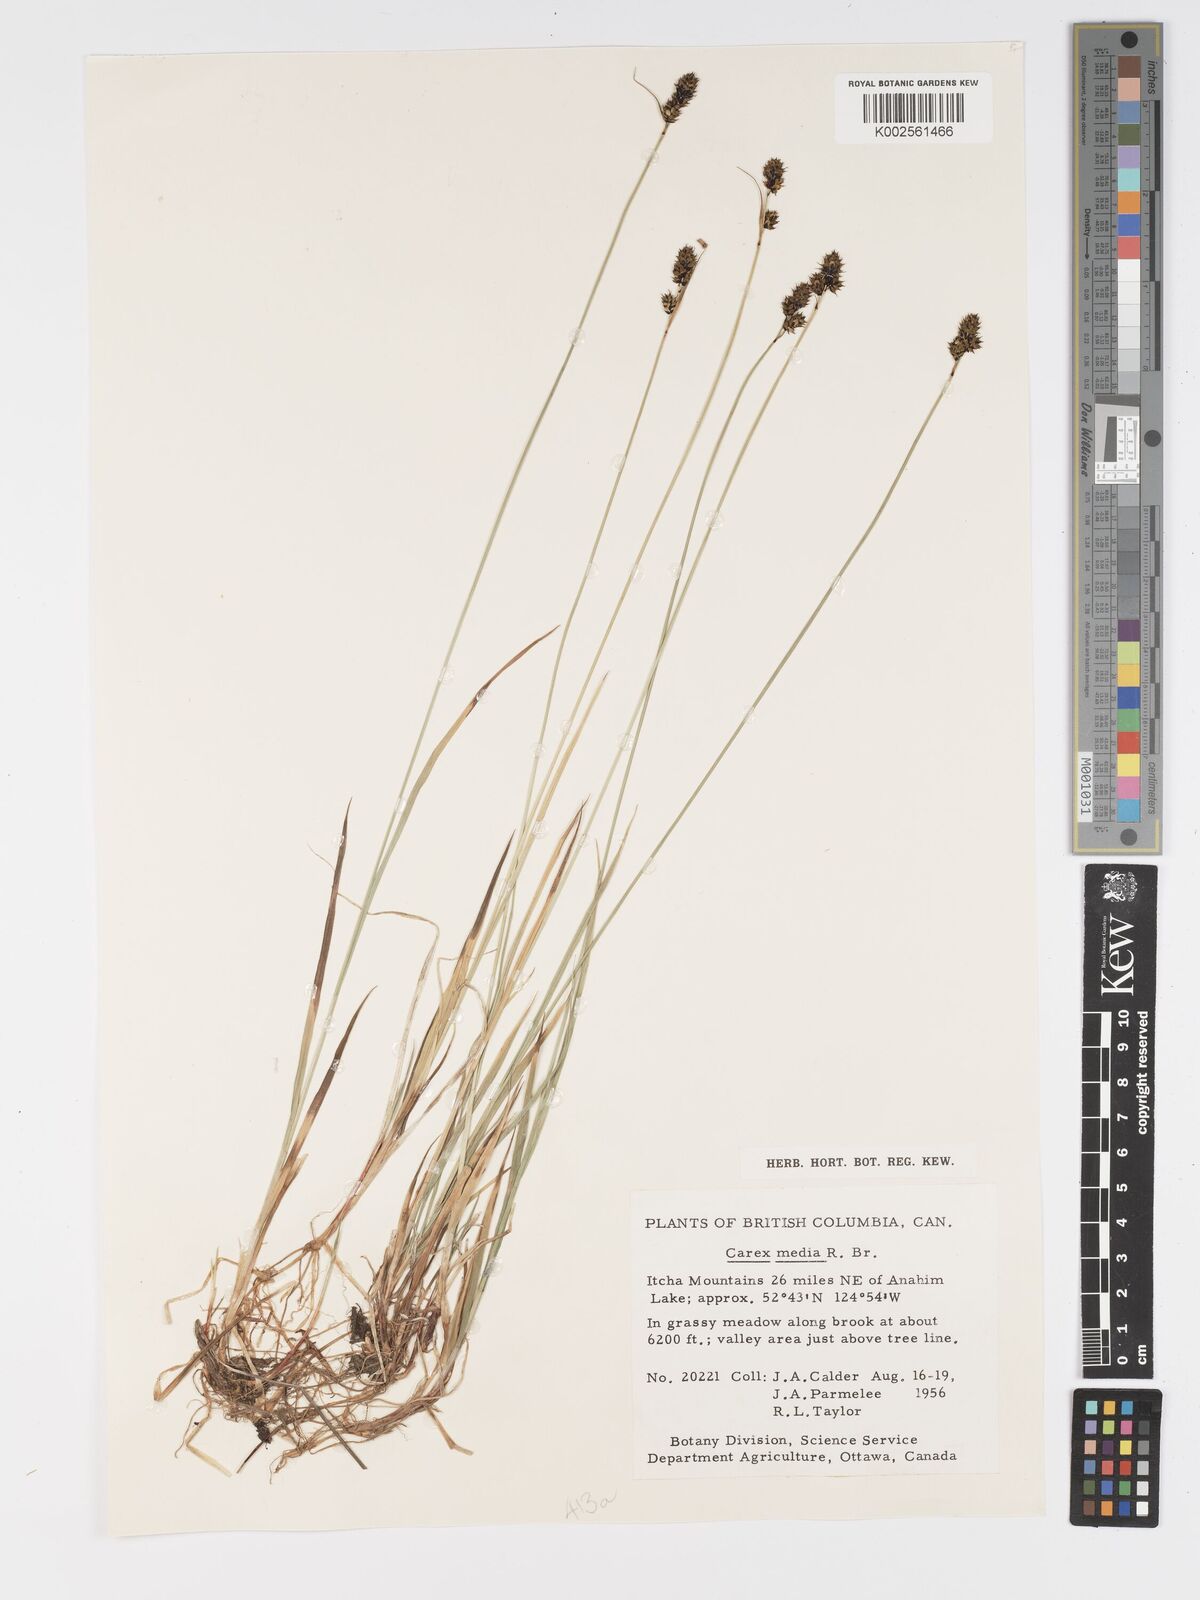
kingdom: Plantae
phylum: Tracheophyta
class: Liliopsida
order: Poales
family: Cyperaceae
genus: Carex
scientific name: Carex media
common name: Alpine sedge
